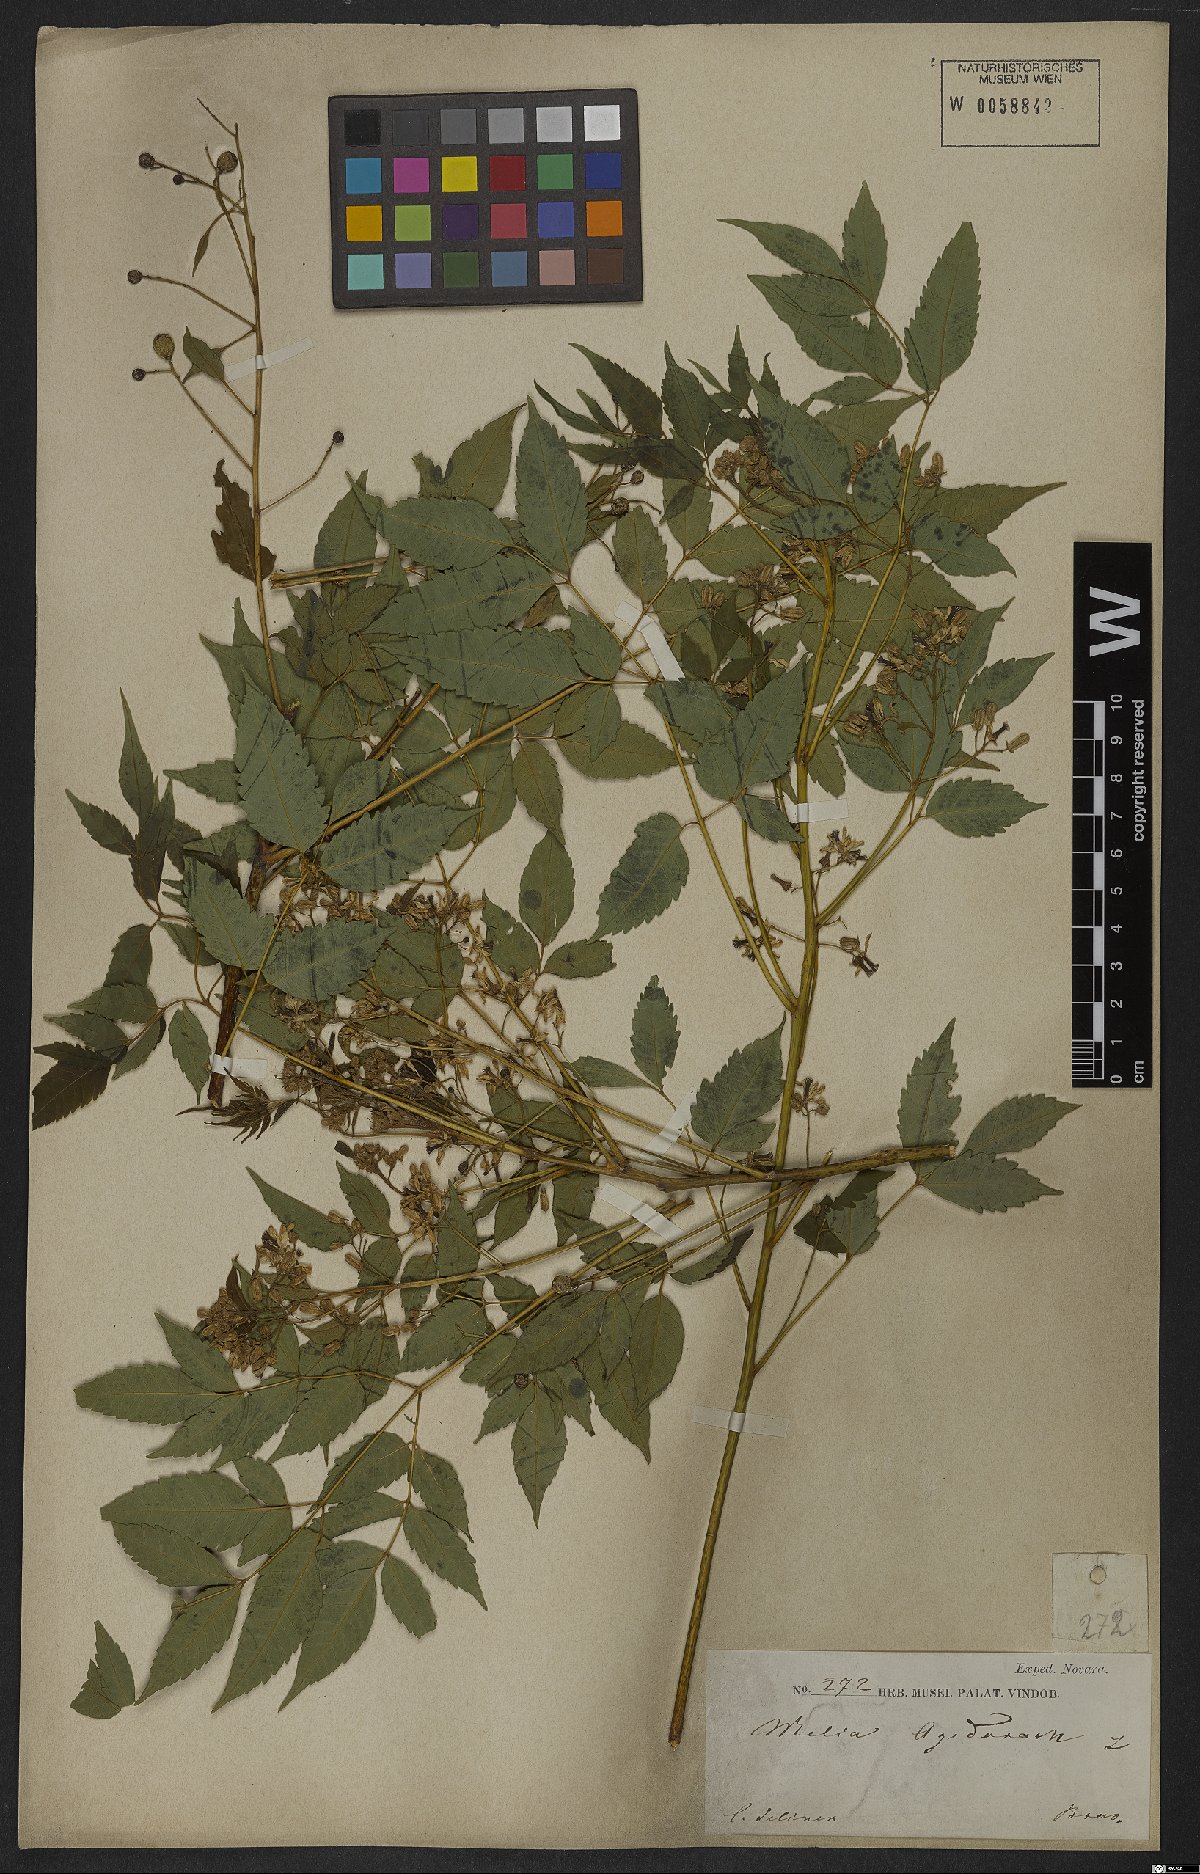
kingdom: Plantae
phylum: Tracheophyta
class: Magnoliopsida
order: Sapindales
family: Meliaceae
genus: Melia
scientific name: Melia azedarach
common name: Chinaberrytree
